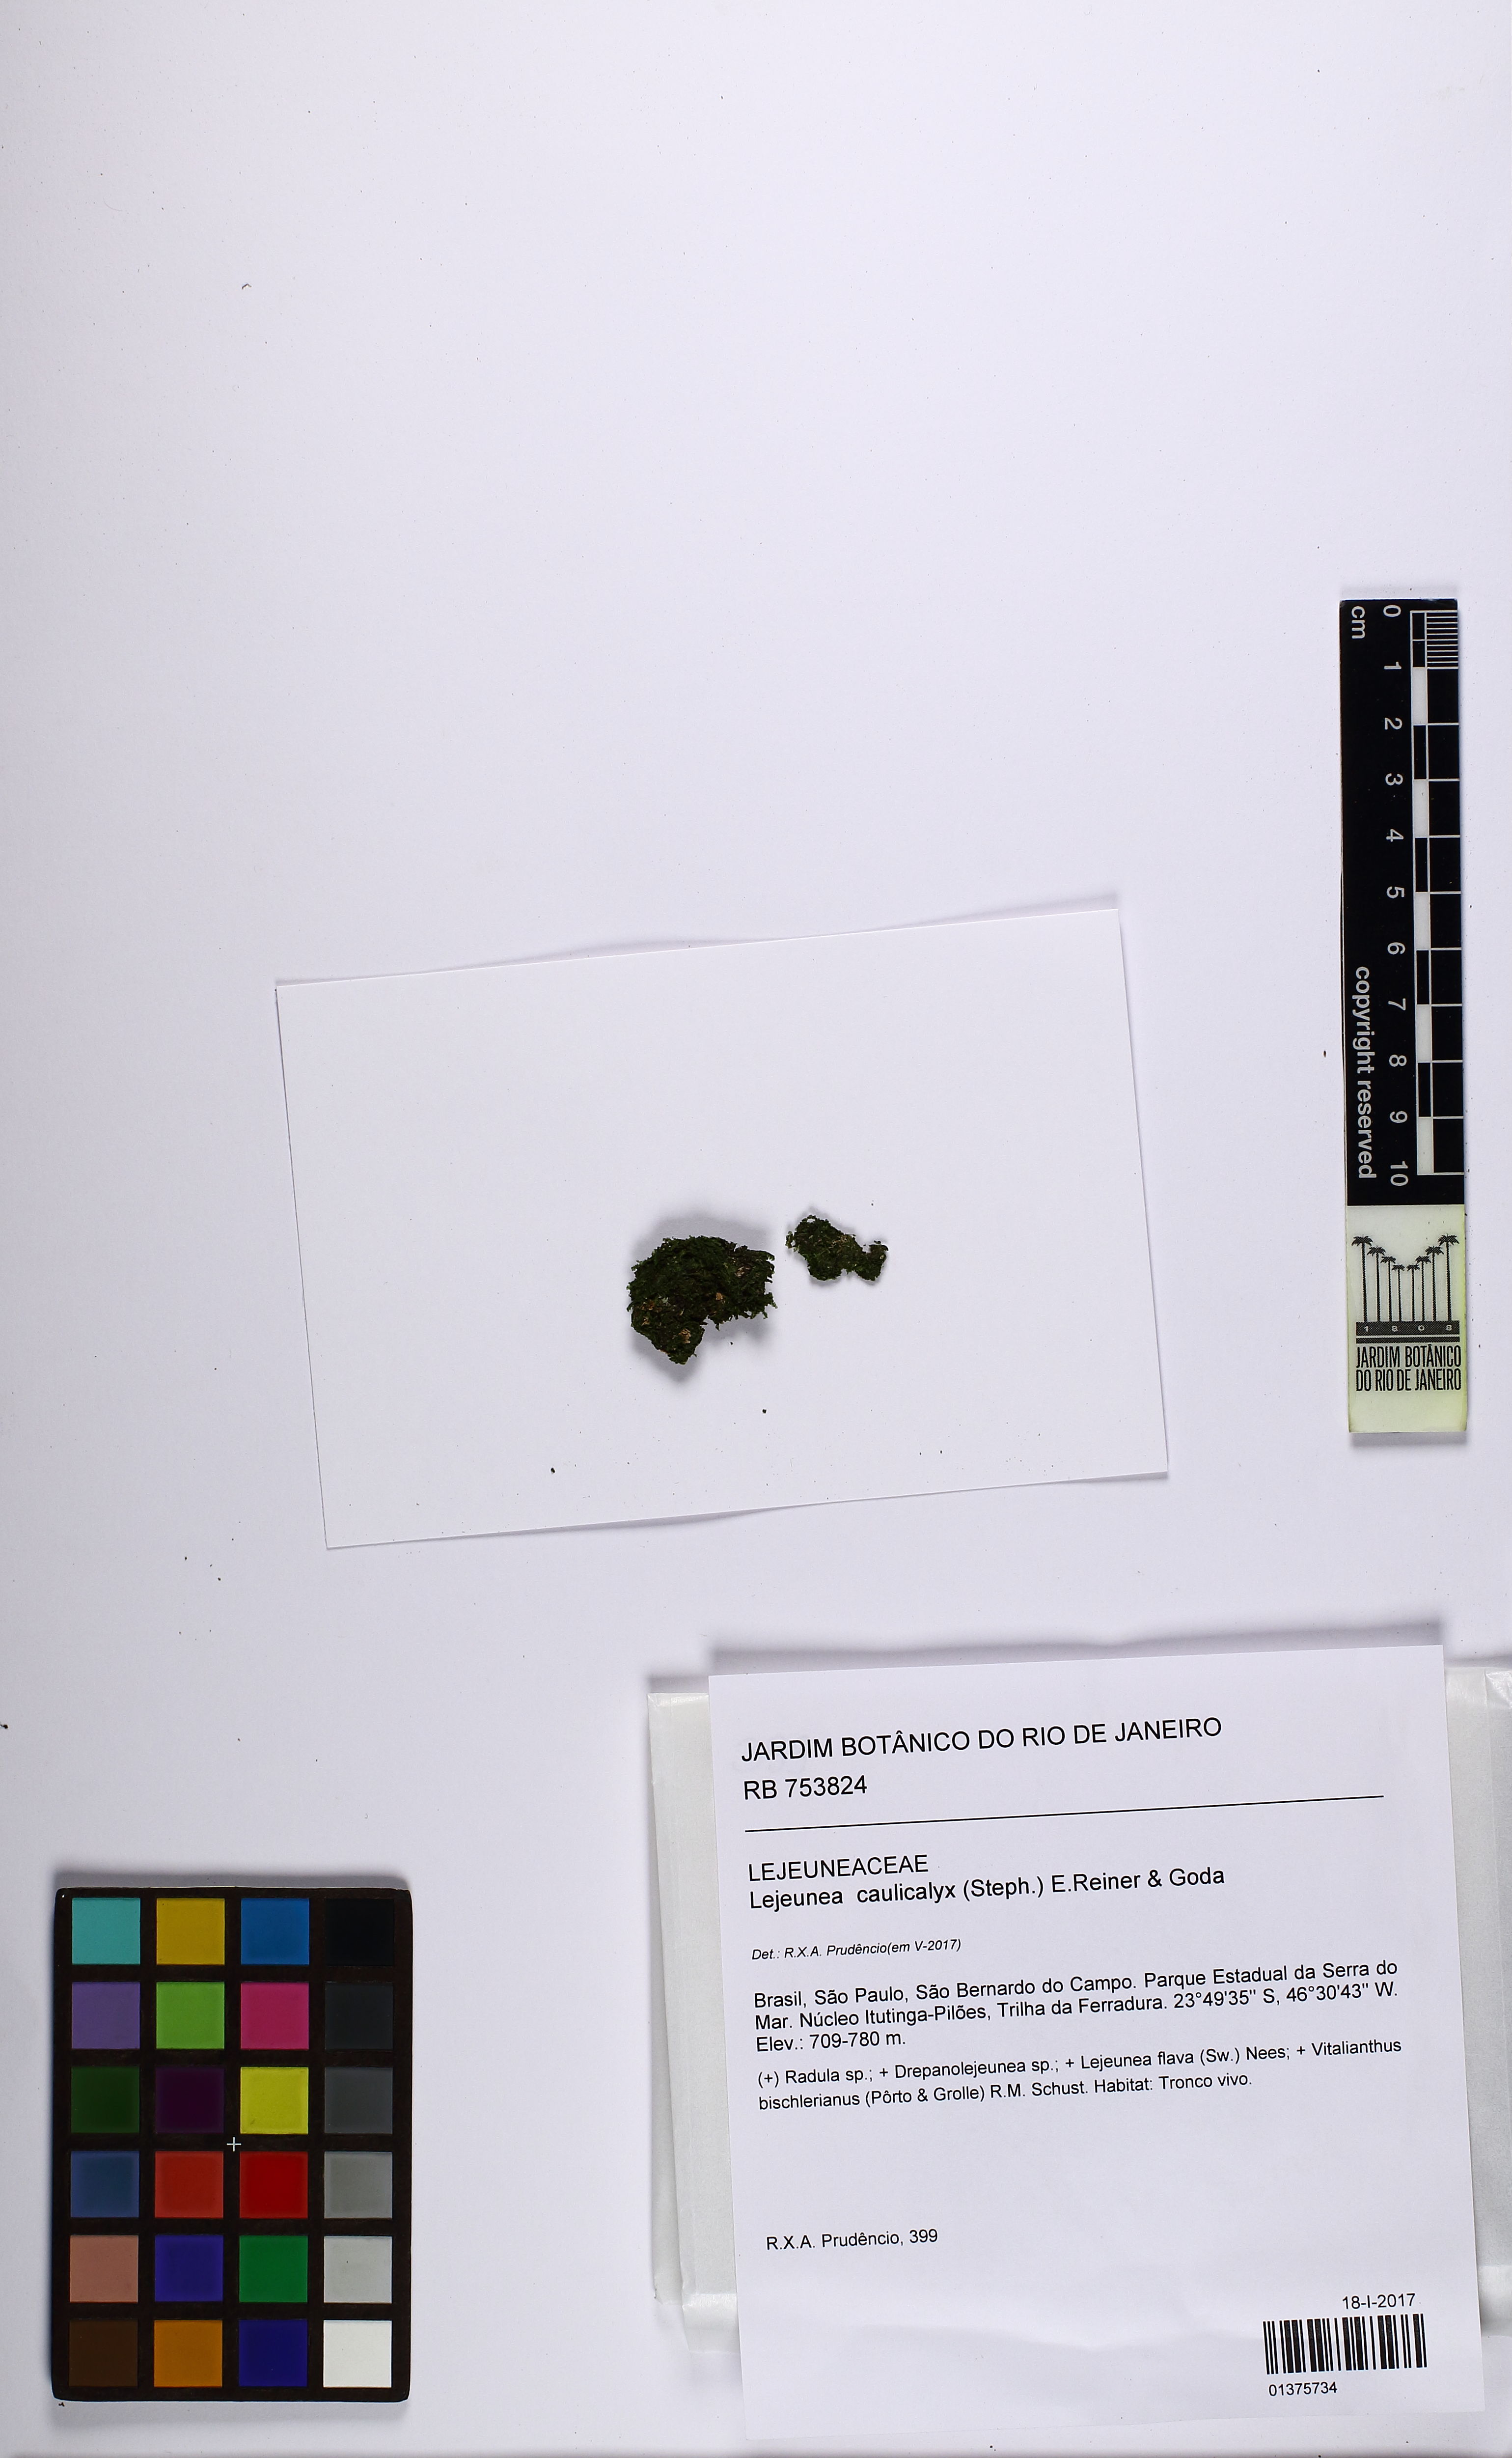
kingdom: Plantae
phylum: Marchantiophyta
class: Jungermanniopsida
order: Porellales
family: Lejeuneaceae
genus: Lejeunea
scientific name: Lejeunea glaucescens
